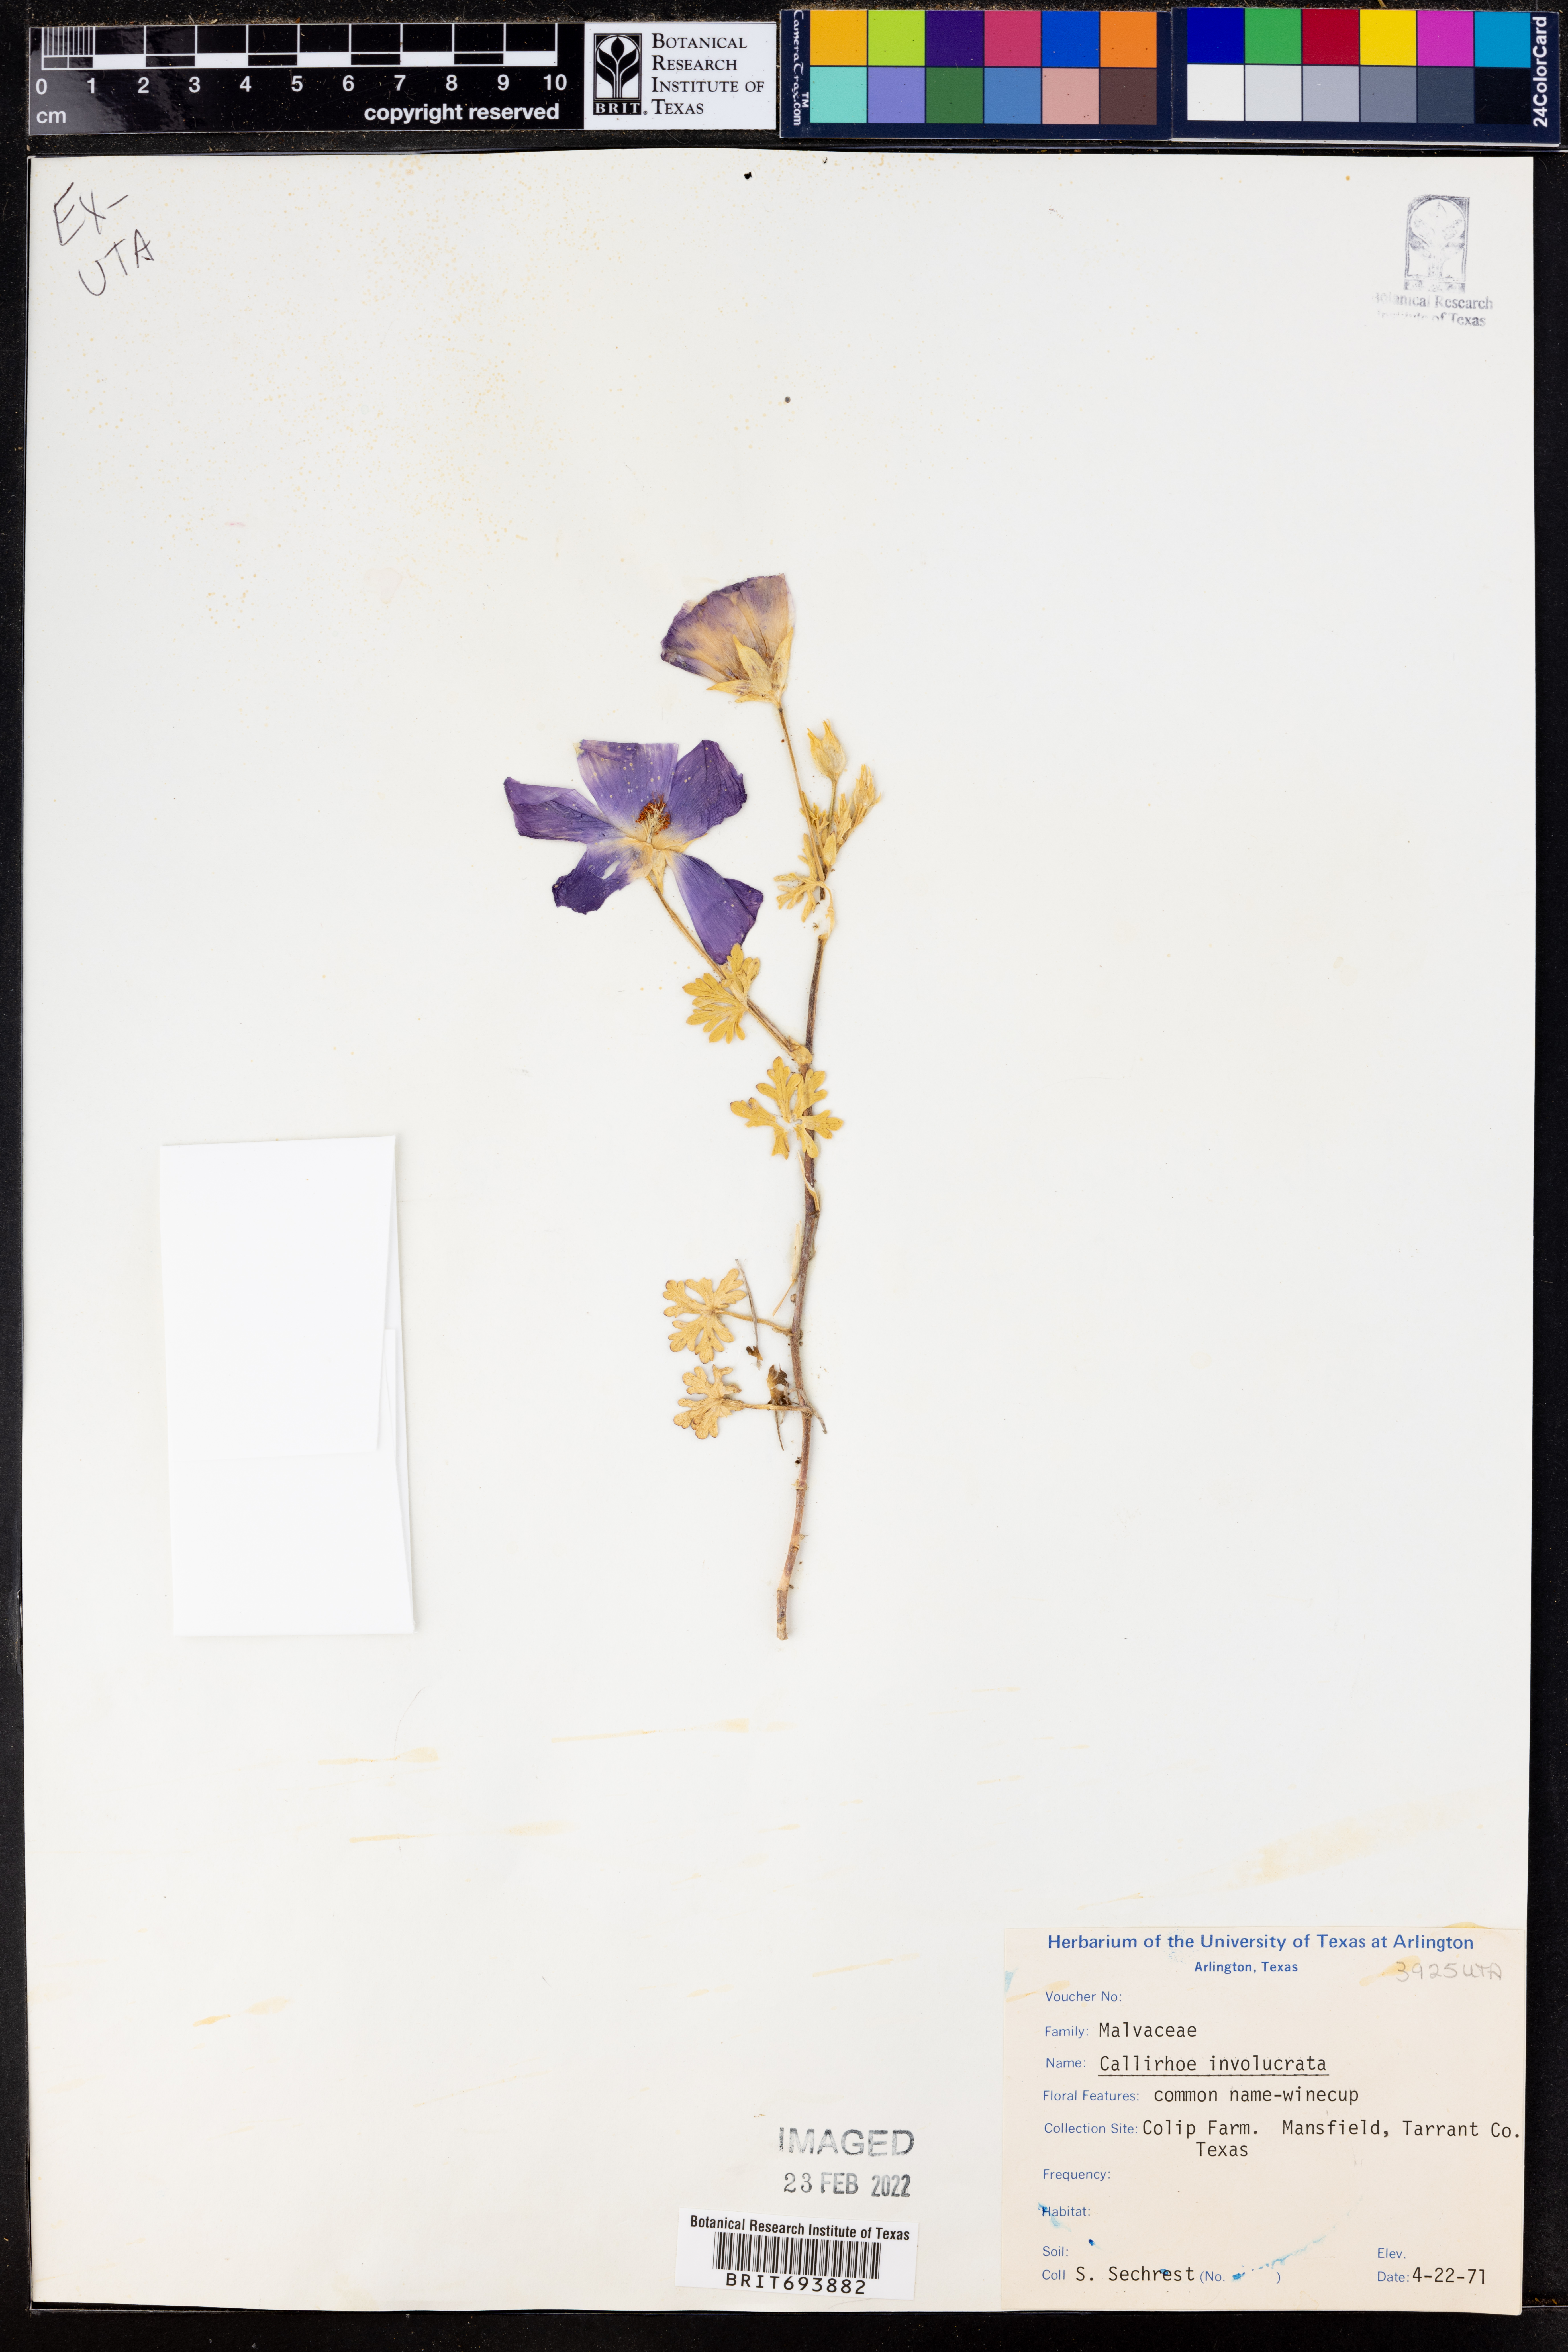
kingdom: Plantae
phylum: Tracheophyta
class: Magnoliopsida
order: Malvales
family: Malvaceae
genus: Callirhoe
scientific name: Callirhoe involucrata
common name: Purple poppy-mallow
